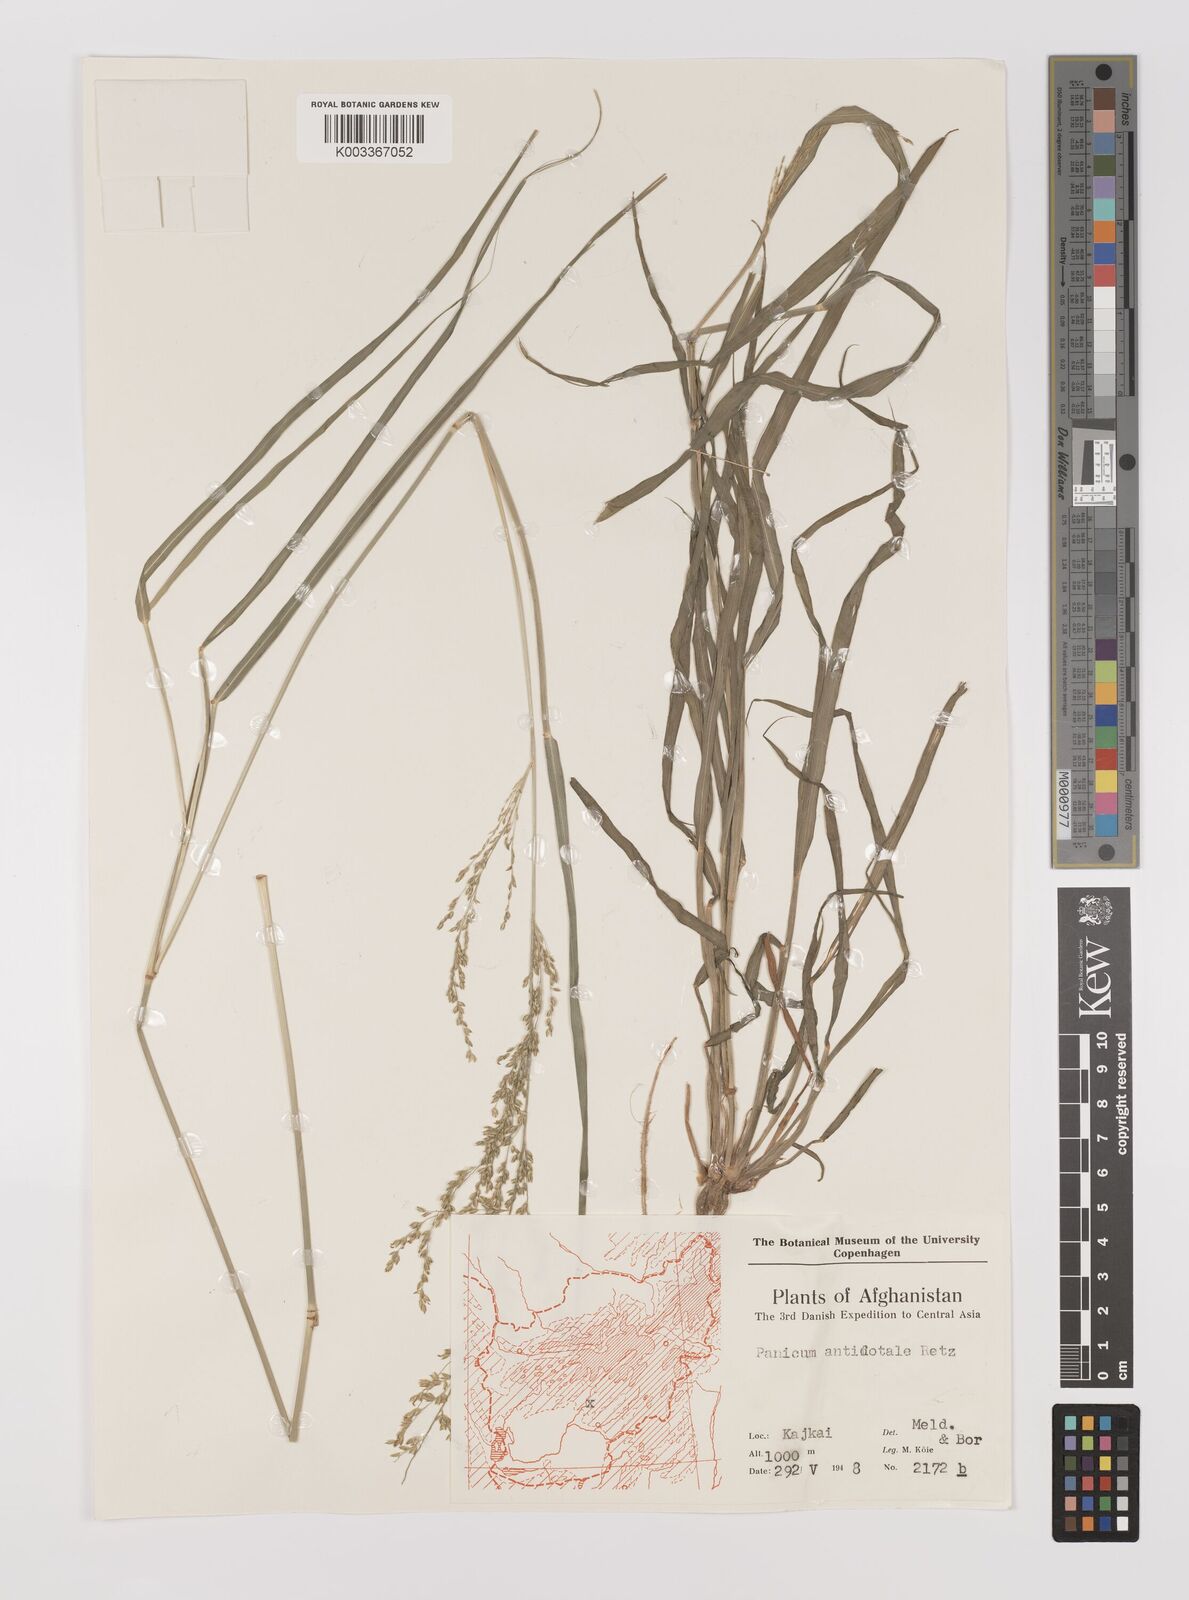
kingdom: Plantae
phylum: Tracheophyta
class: Liliopsida
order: Poales
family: Poaceae
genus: Panicum
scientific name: Panicum antidotale
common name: Blue panicum
